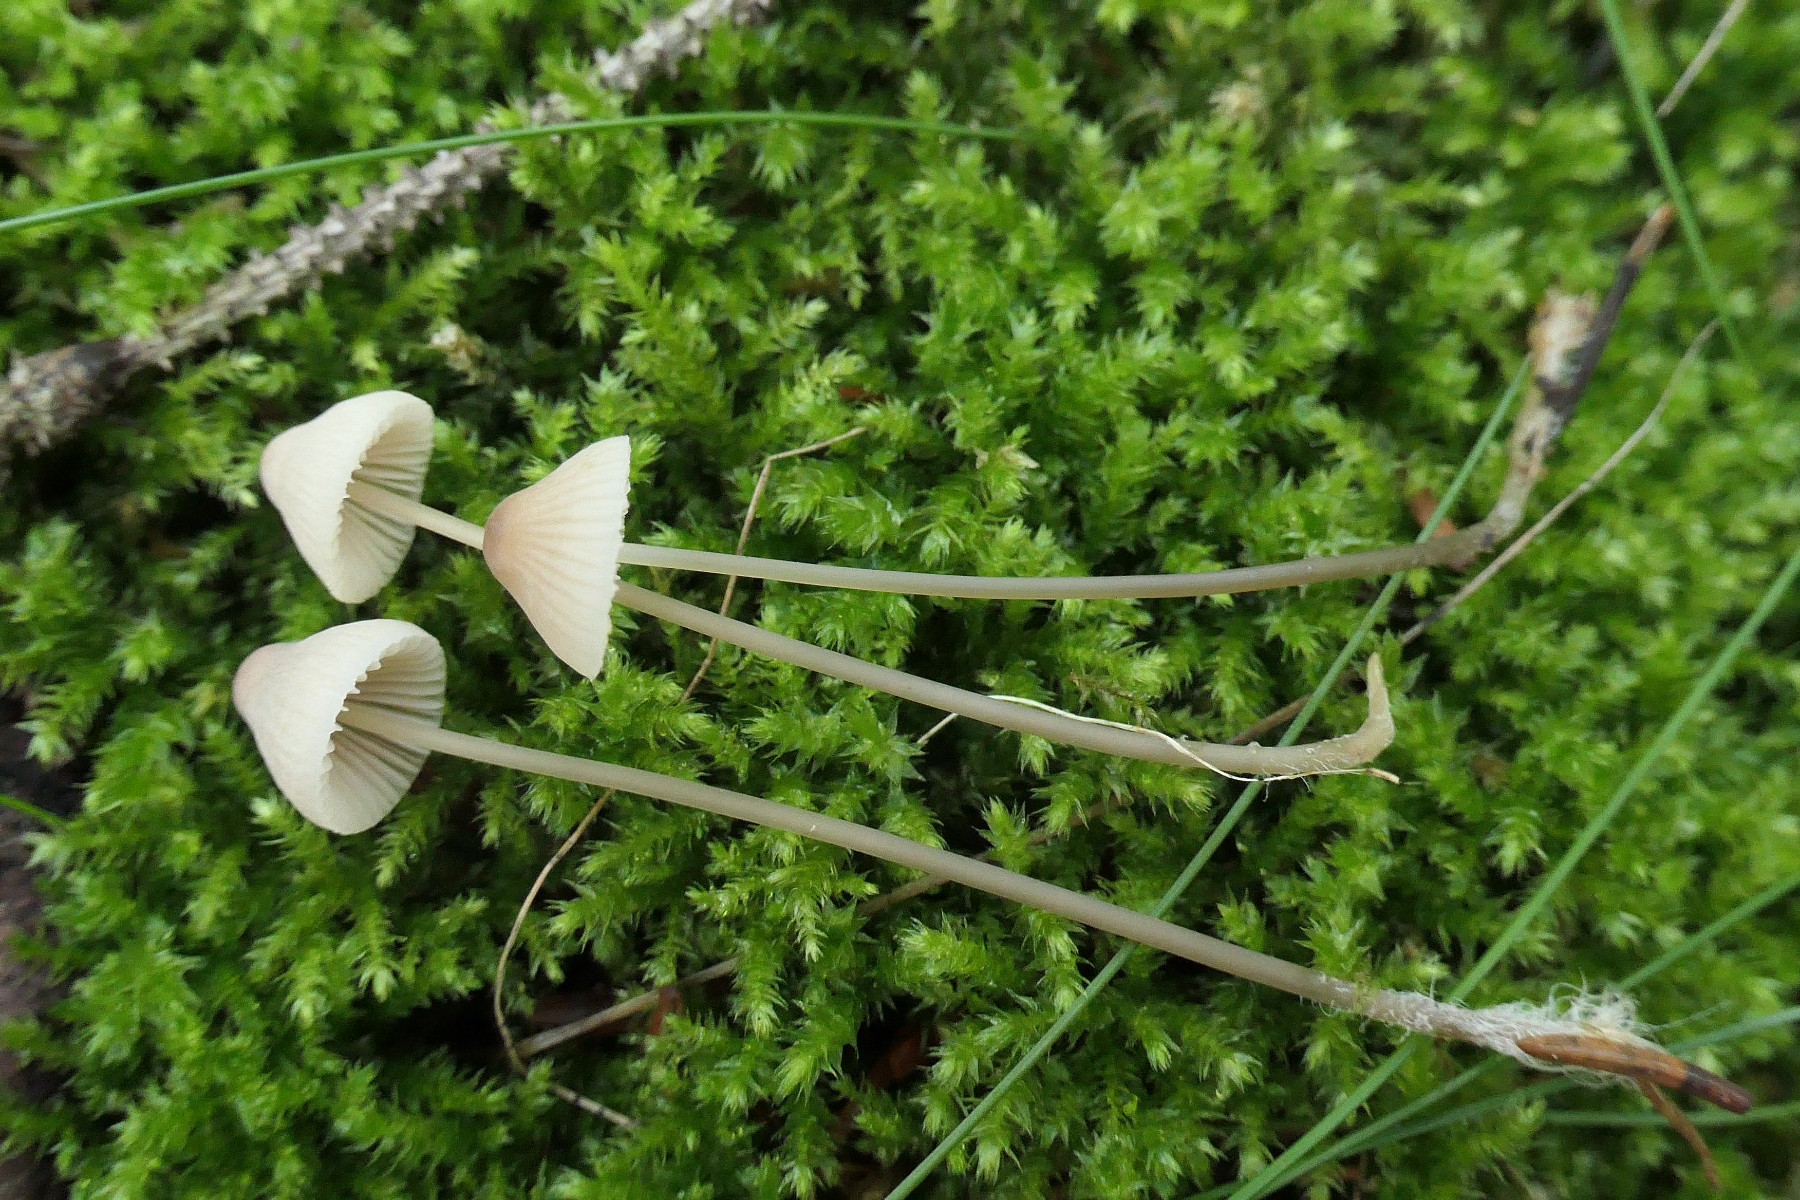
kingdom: Fungi
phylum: Basidiomycota
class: Agaricomycetes
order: Agaricales
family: Mycenaceae
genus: Mycena
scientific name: Mycena metata
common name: rødlig huesvamp
